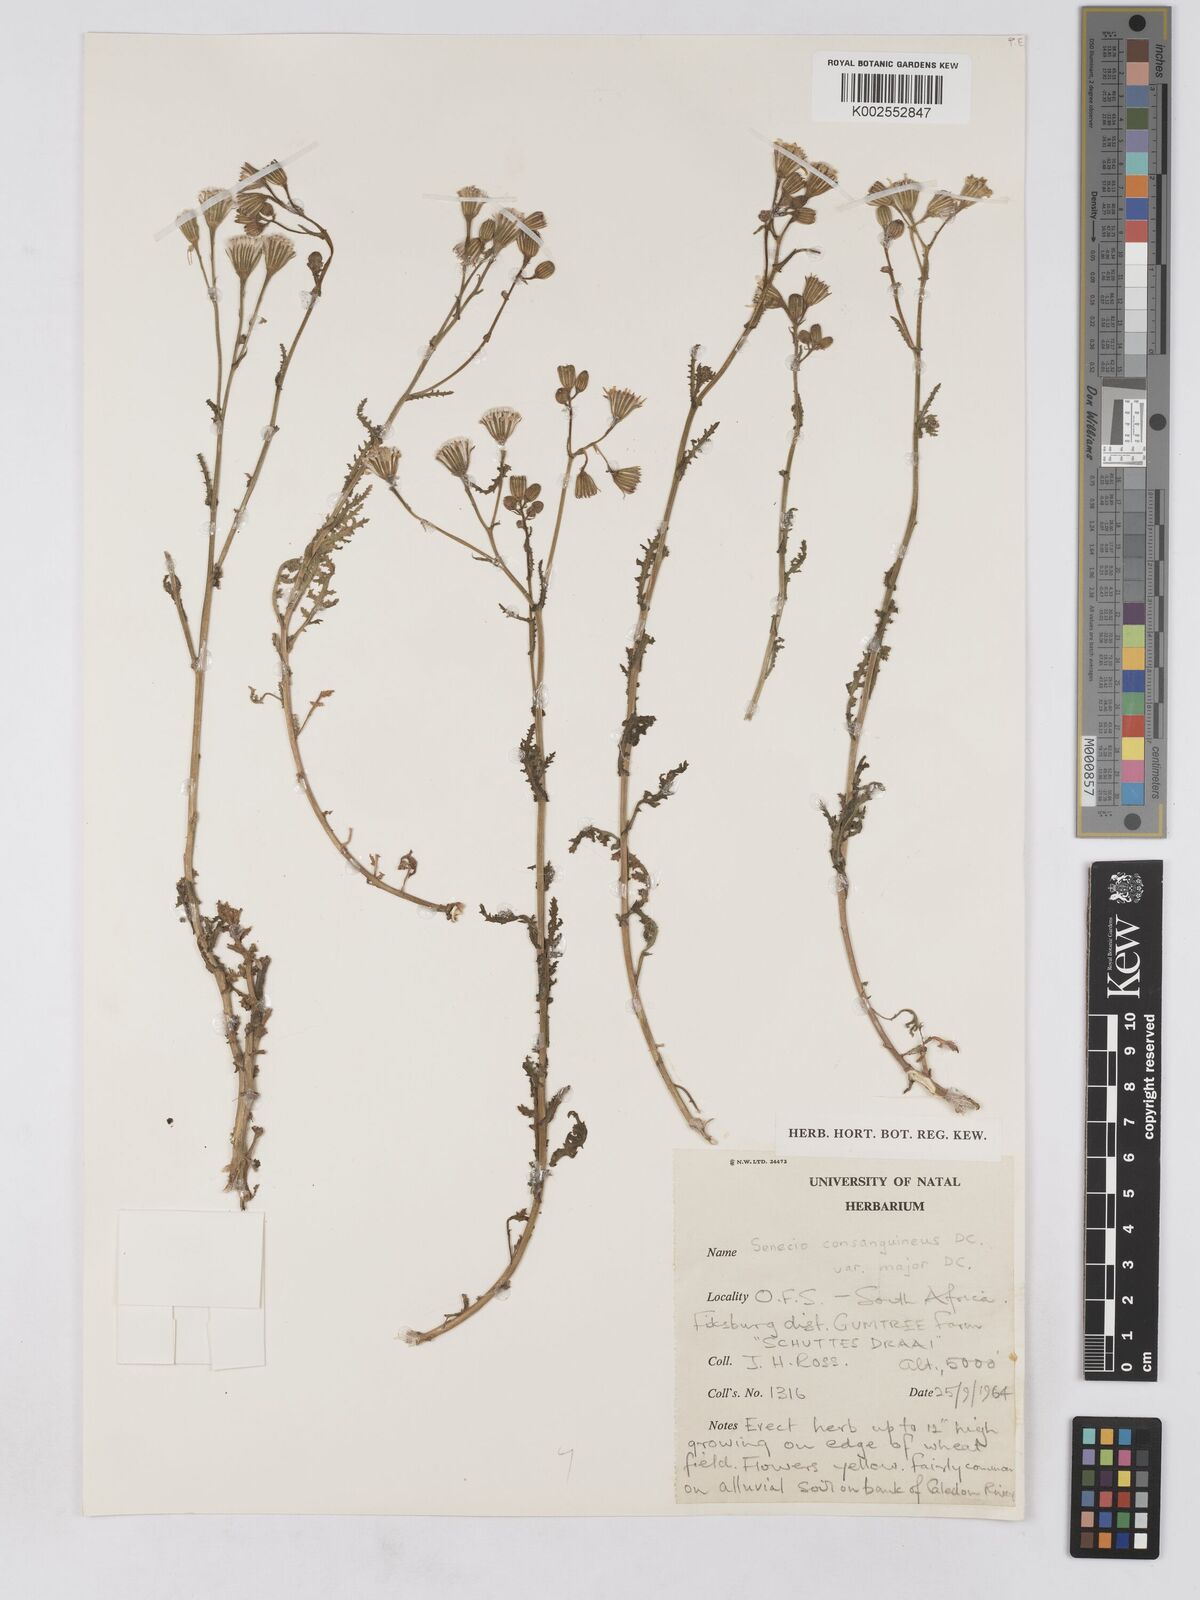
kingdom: Plantae
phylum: Tracheophyta
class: Magnoliopsida
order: Asterales
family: Asteraceae
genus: Senecio
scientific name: Senecio consanguineus
